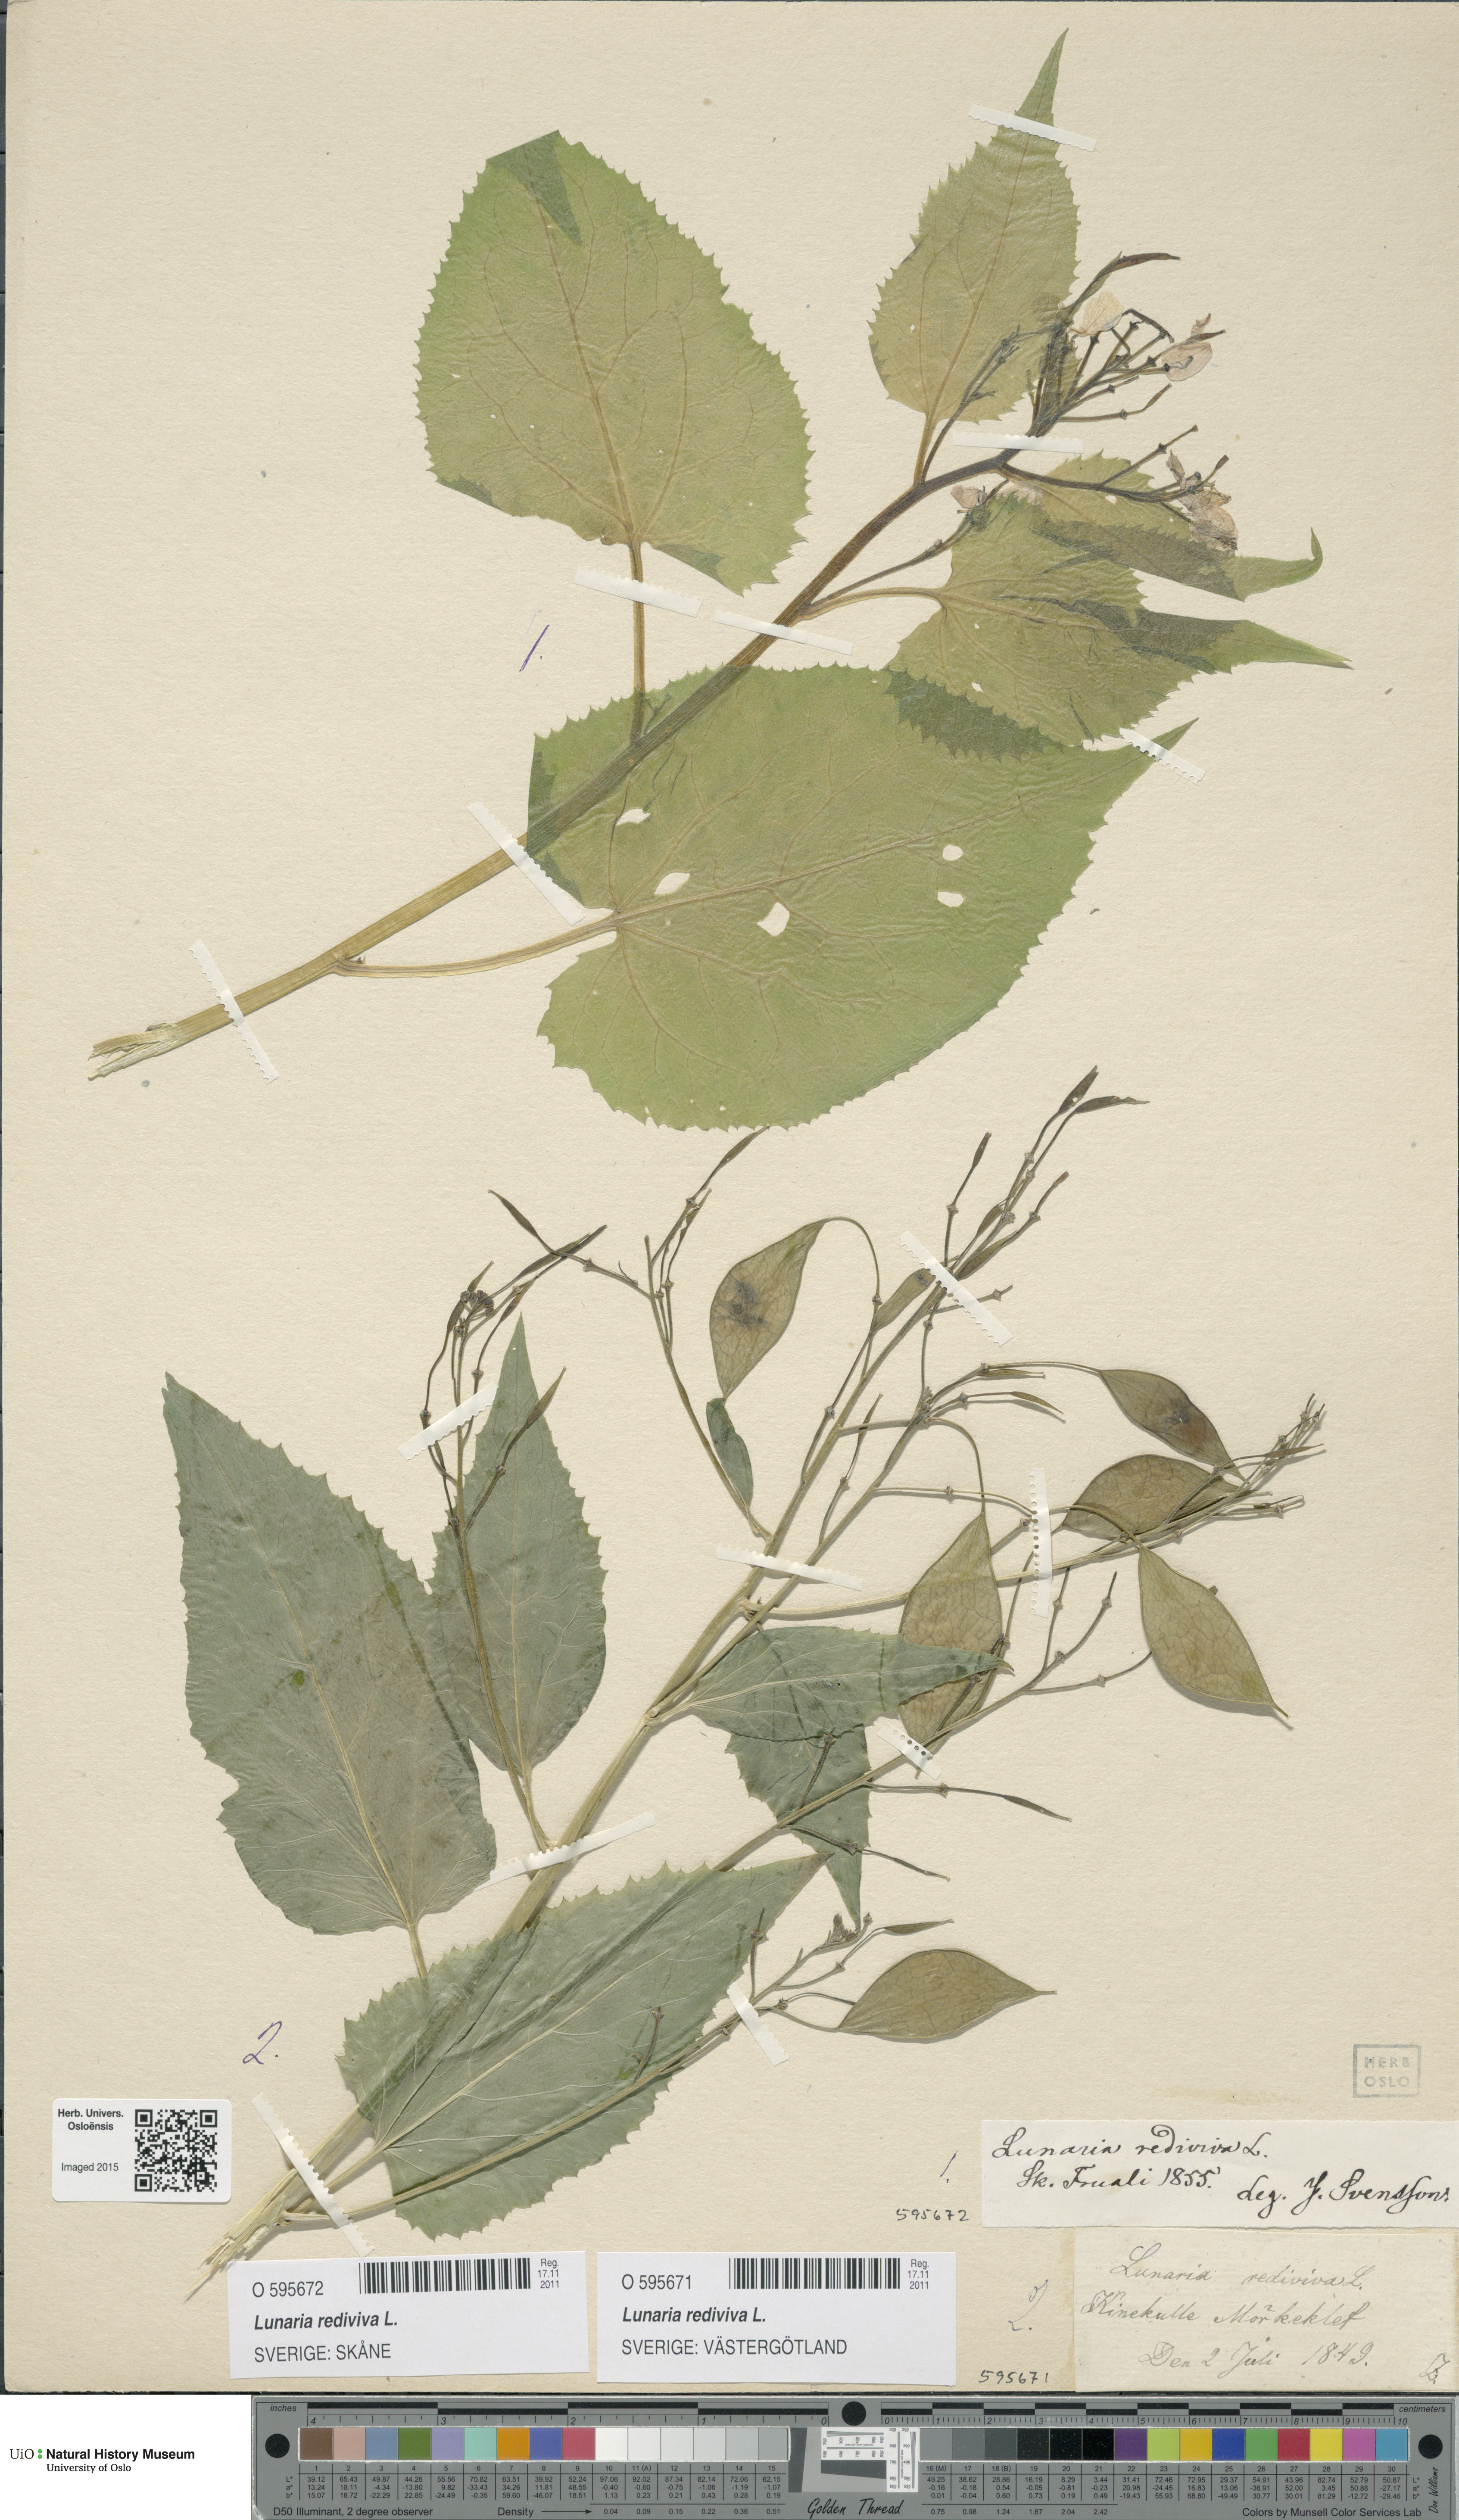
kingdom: Plantae
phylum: Tracheophyta
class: Magnoliopsida
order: Brassicales
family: Brassicaceae
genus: Lunaria
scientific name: Lunaria rediviva
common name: Perennial honesty
